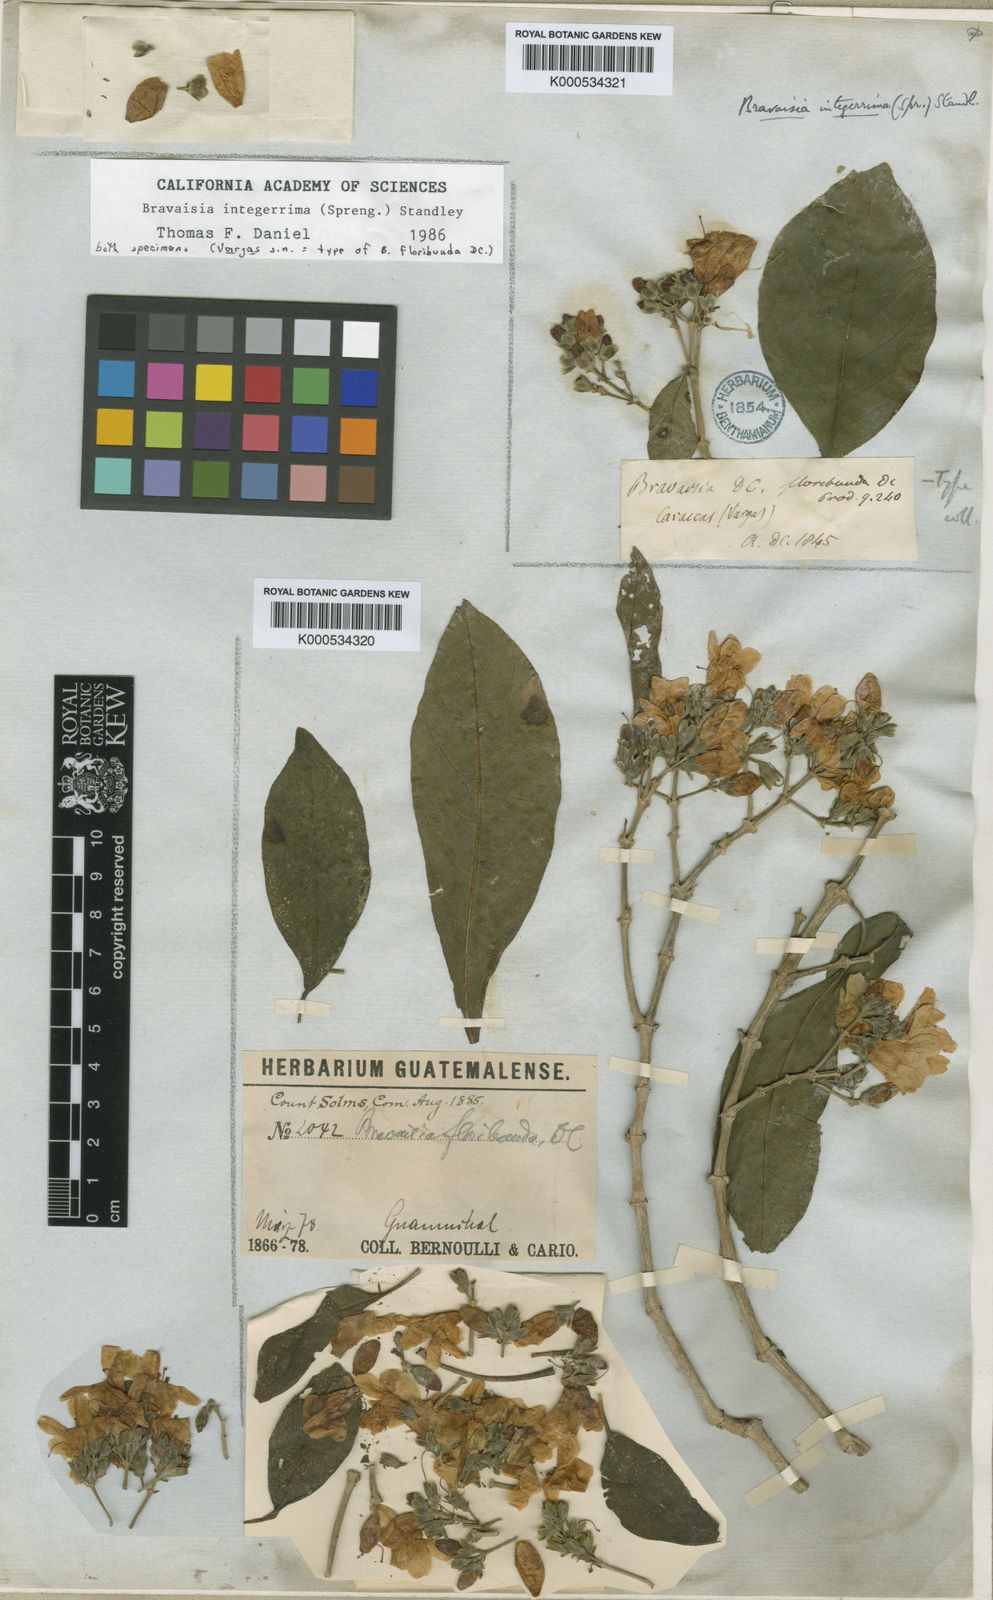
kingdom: Plantae
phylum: Tracheophyta
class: Magnoliopsida
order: Lamiales
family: Acanthaceae
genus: Bravaisia
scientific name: Bravaisia integerrima
